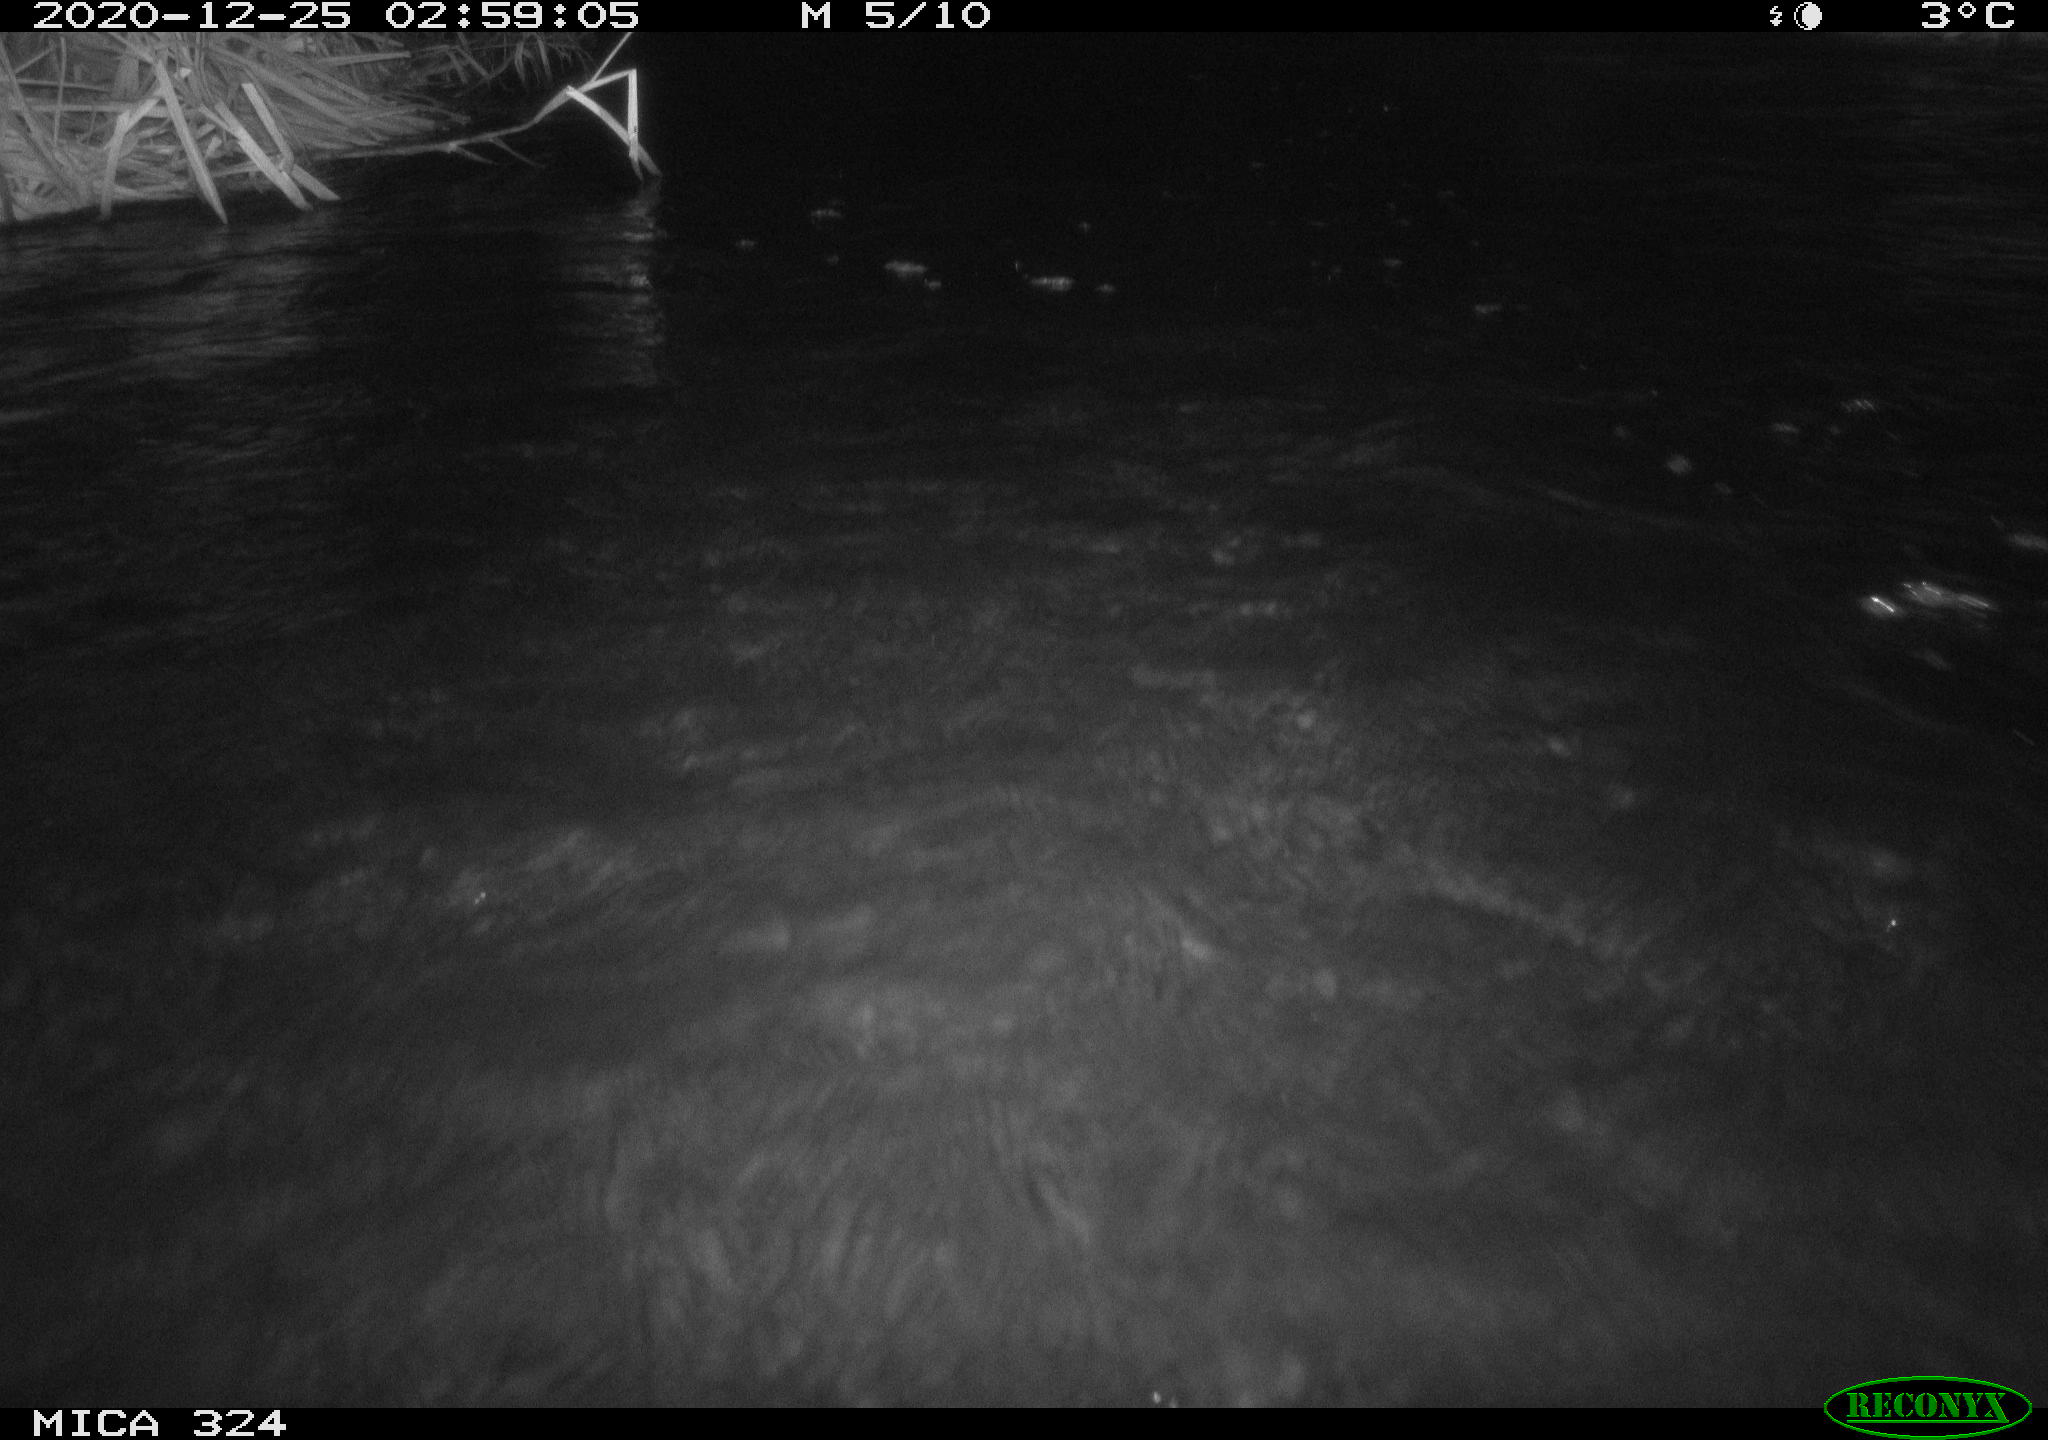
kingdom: Animalia
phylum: Chordata
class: Mammalia
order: Rodentia
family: Cricetidae
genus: Ondatra
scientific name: Ondatra zibethicus
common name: Muskrat
